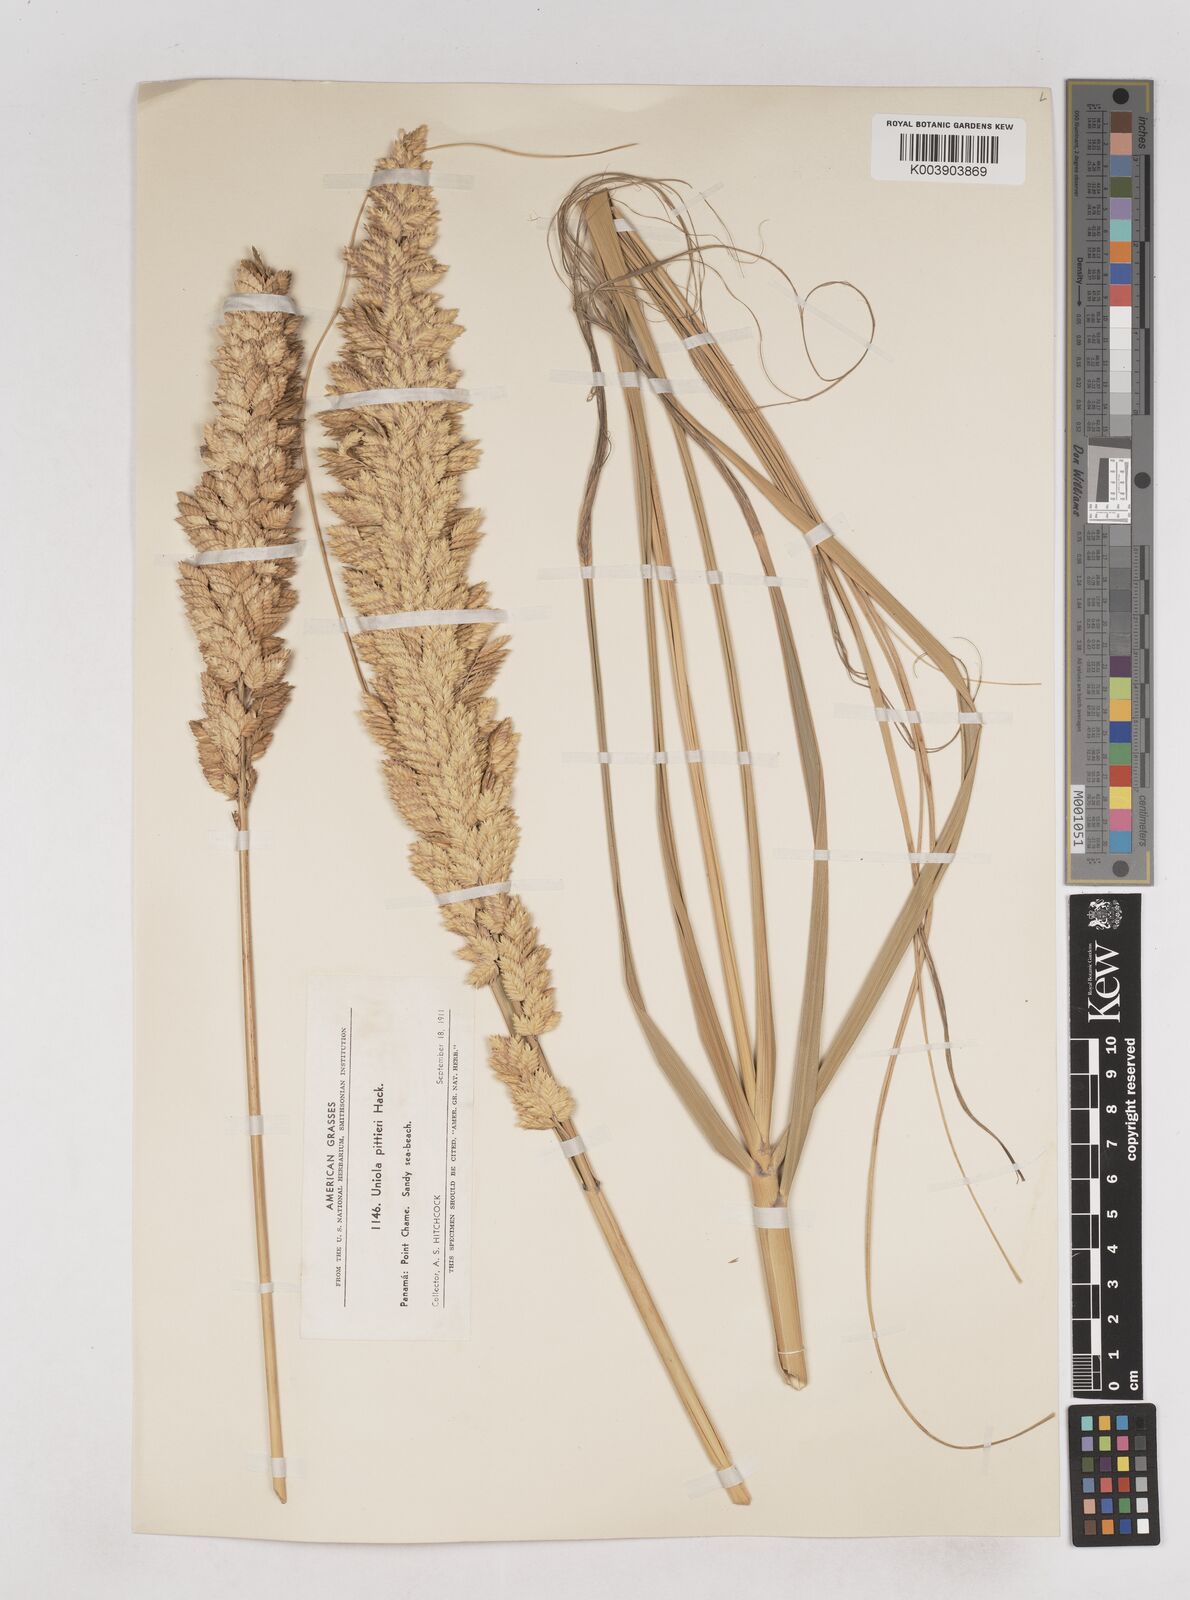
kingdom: Plantae
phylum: Tracheophyta
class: Liliopsida
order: Poales
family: Poaceae
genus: Uniola
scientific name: Uniola pittieri
